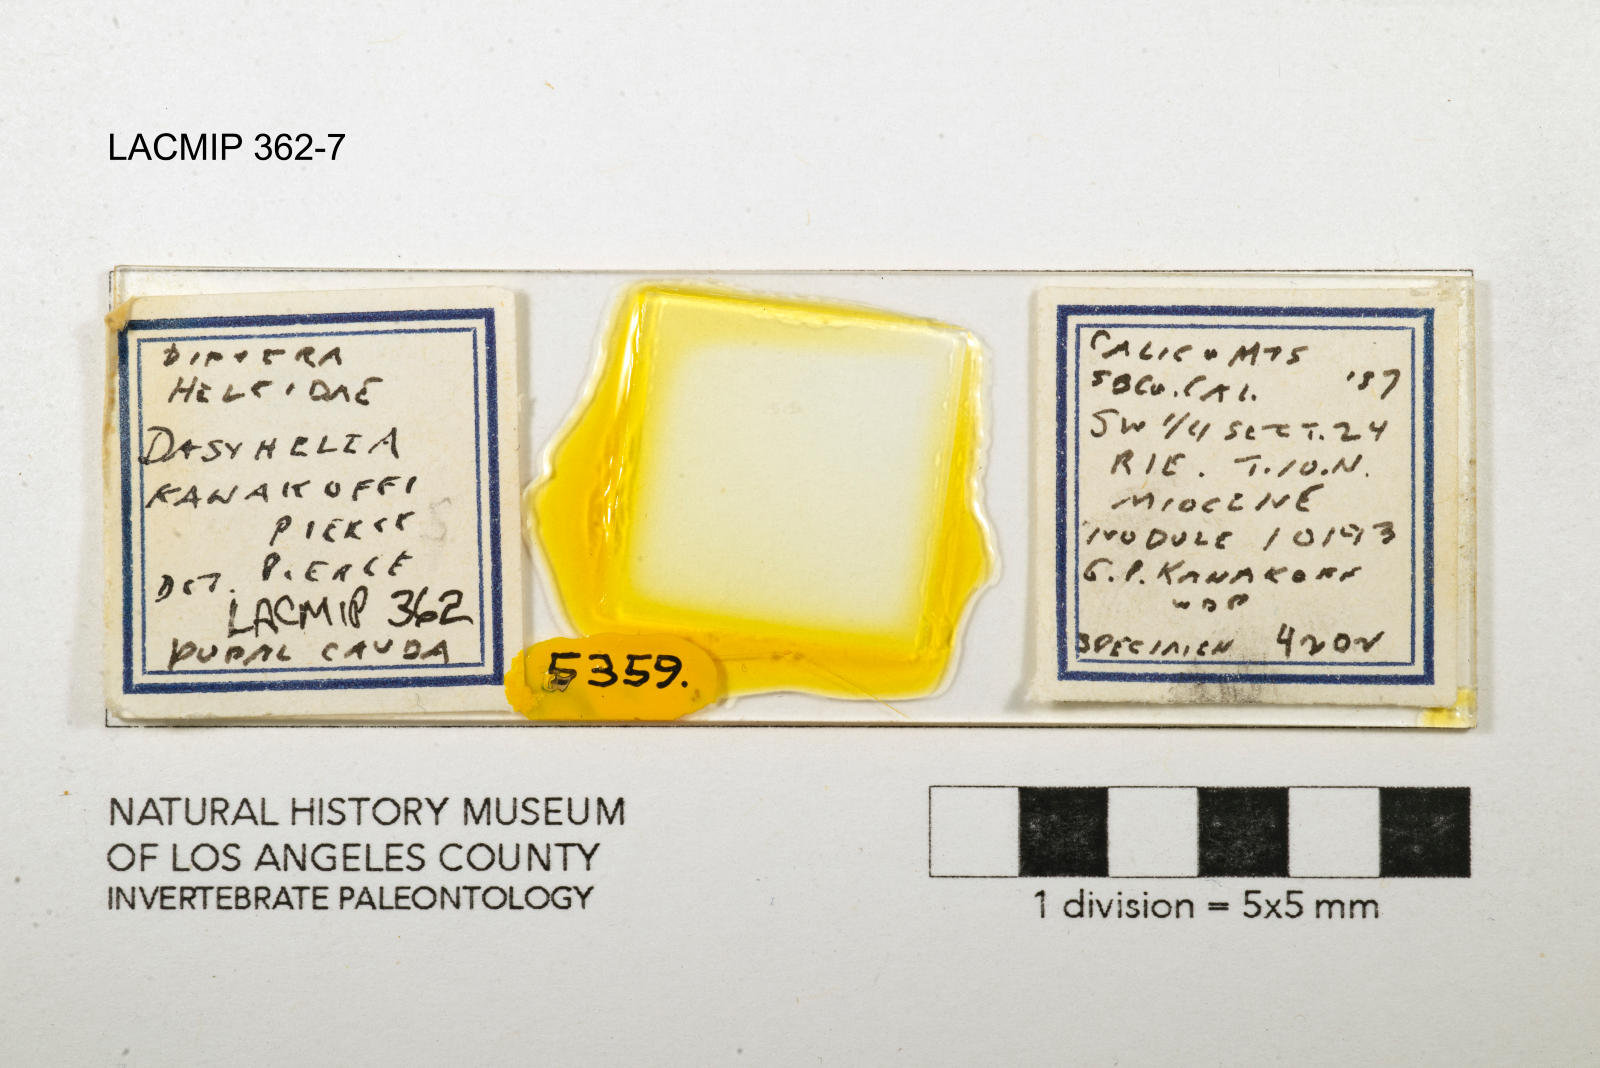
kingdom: Animalia
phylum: Arthropoda
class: Insecta
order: Diptera
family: Ceratopogonidae
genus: Dasyhelea
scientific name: Dasyhelea kanakoffi
